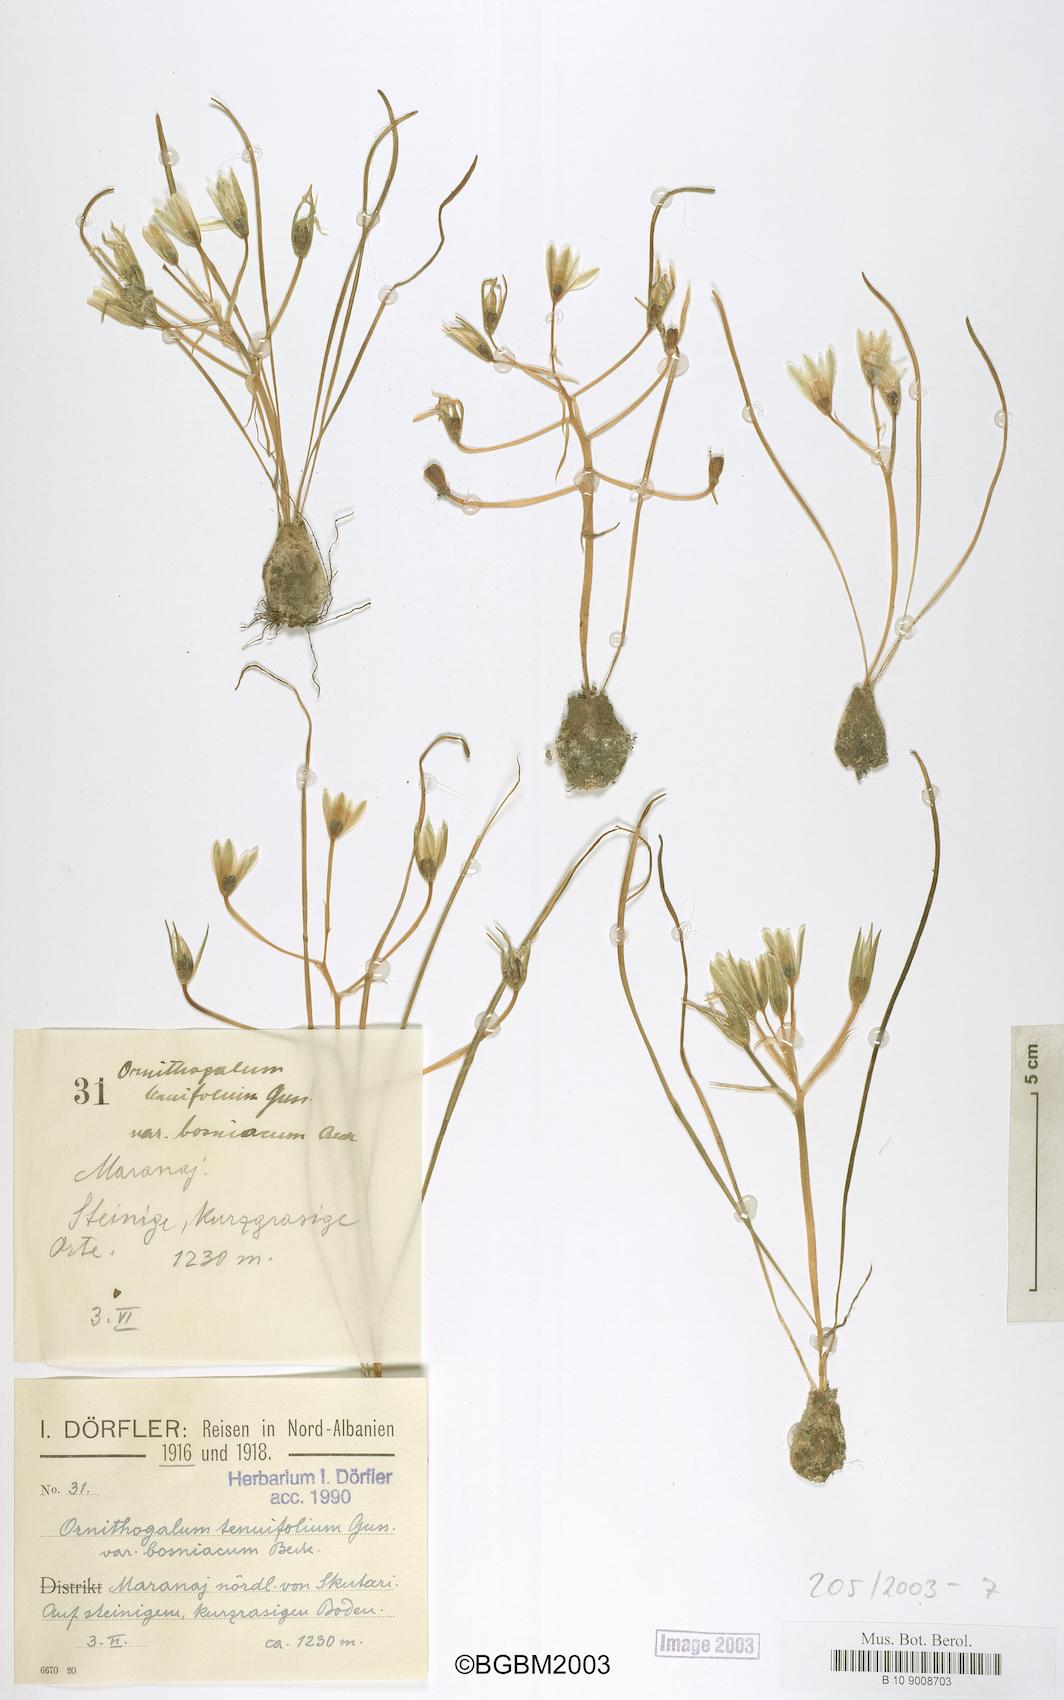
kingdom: Plantae
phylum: Tracheophyta
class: Liliopsida
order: Asparagales
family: Asparagaceae
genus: Ornithogalum
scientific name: Ornithogalum gussonei
